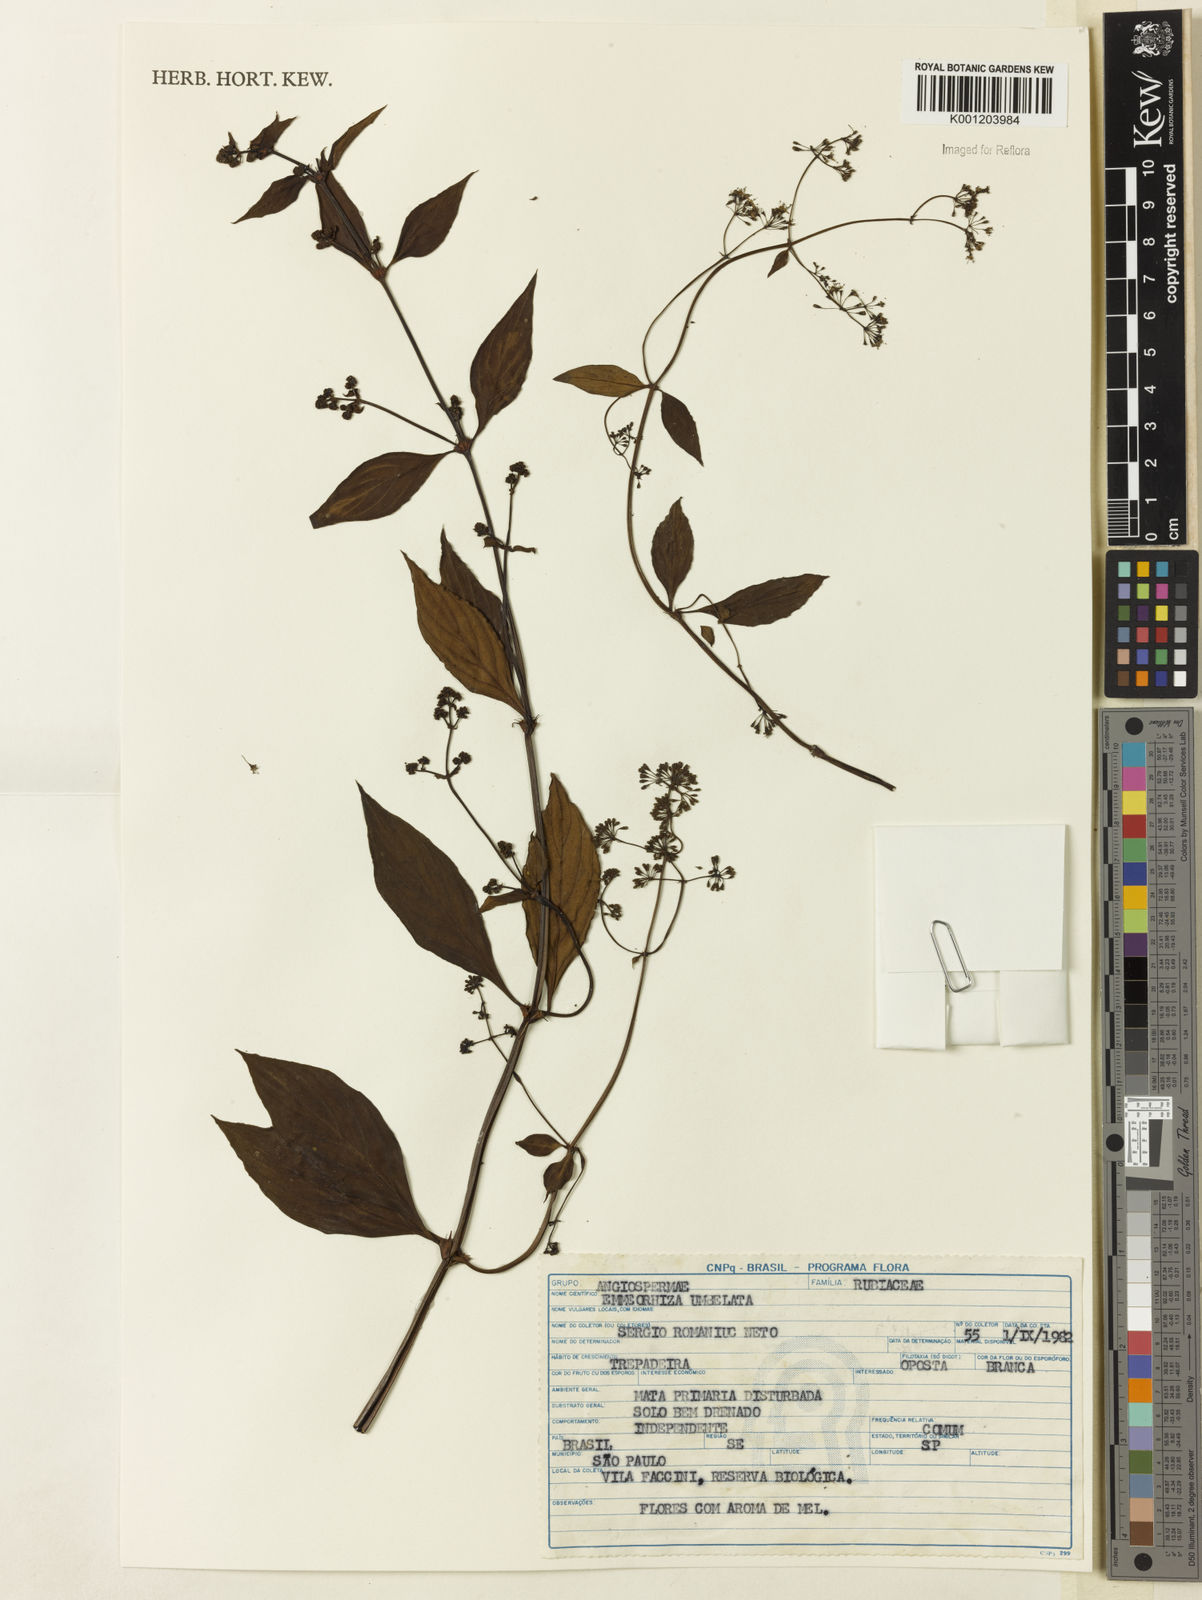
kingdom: Plantae
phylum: Tracheophyta
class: Magnoliopsida
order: Gentianales
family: Rubiaceae
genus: Emmeorhiza
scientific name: Emmeorhiza umbellata
